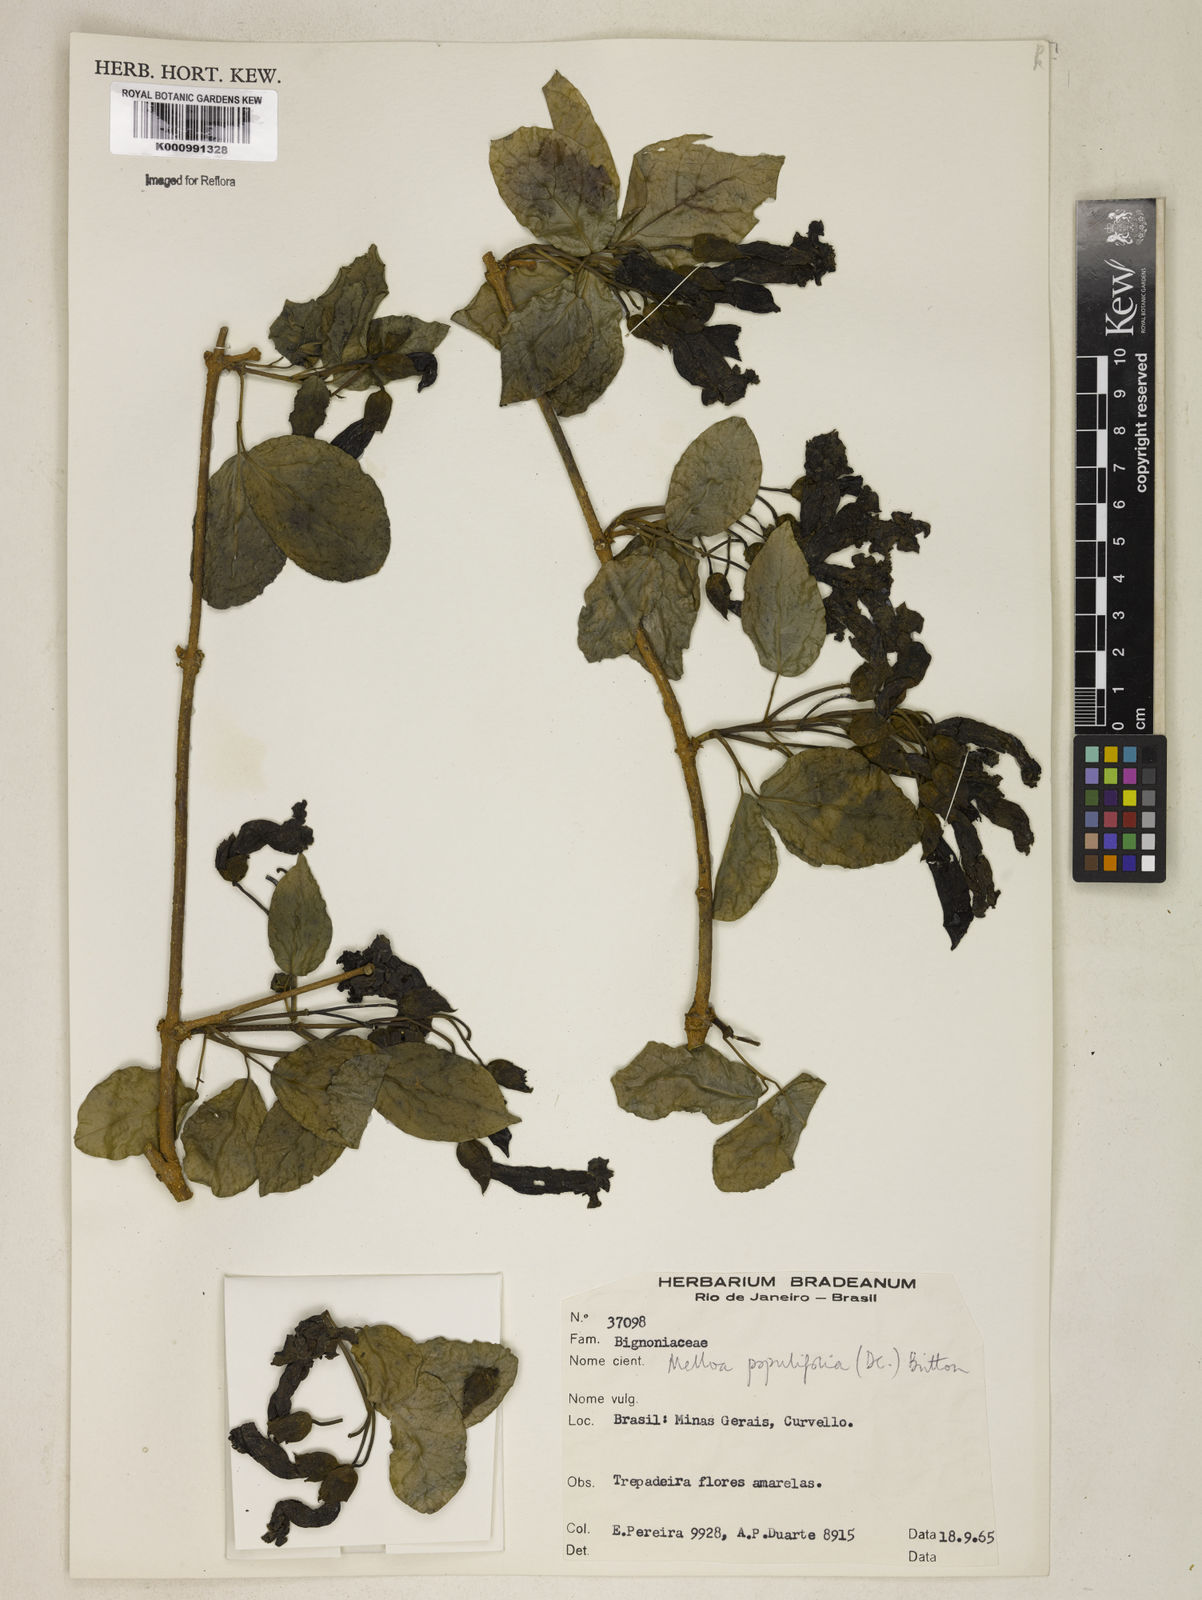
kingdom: Plantae
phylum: Tracheophyta
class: Magnoliopsida
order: Lamiales
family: Bignoniaceae
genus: Dolichandra
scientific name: Dolichandra quadrivalvis
